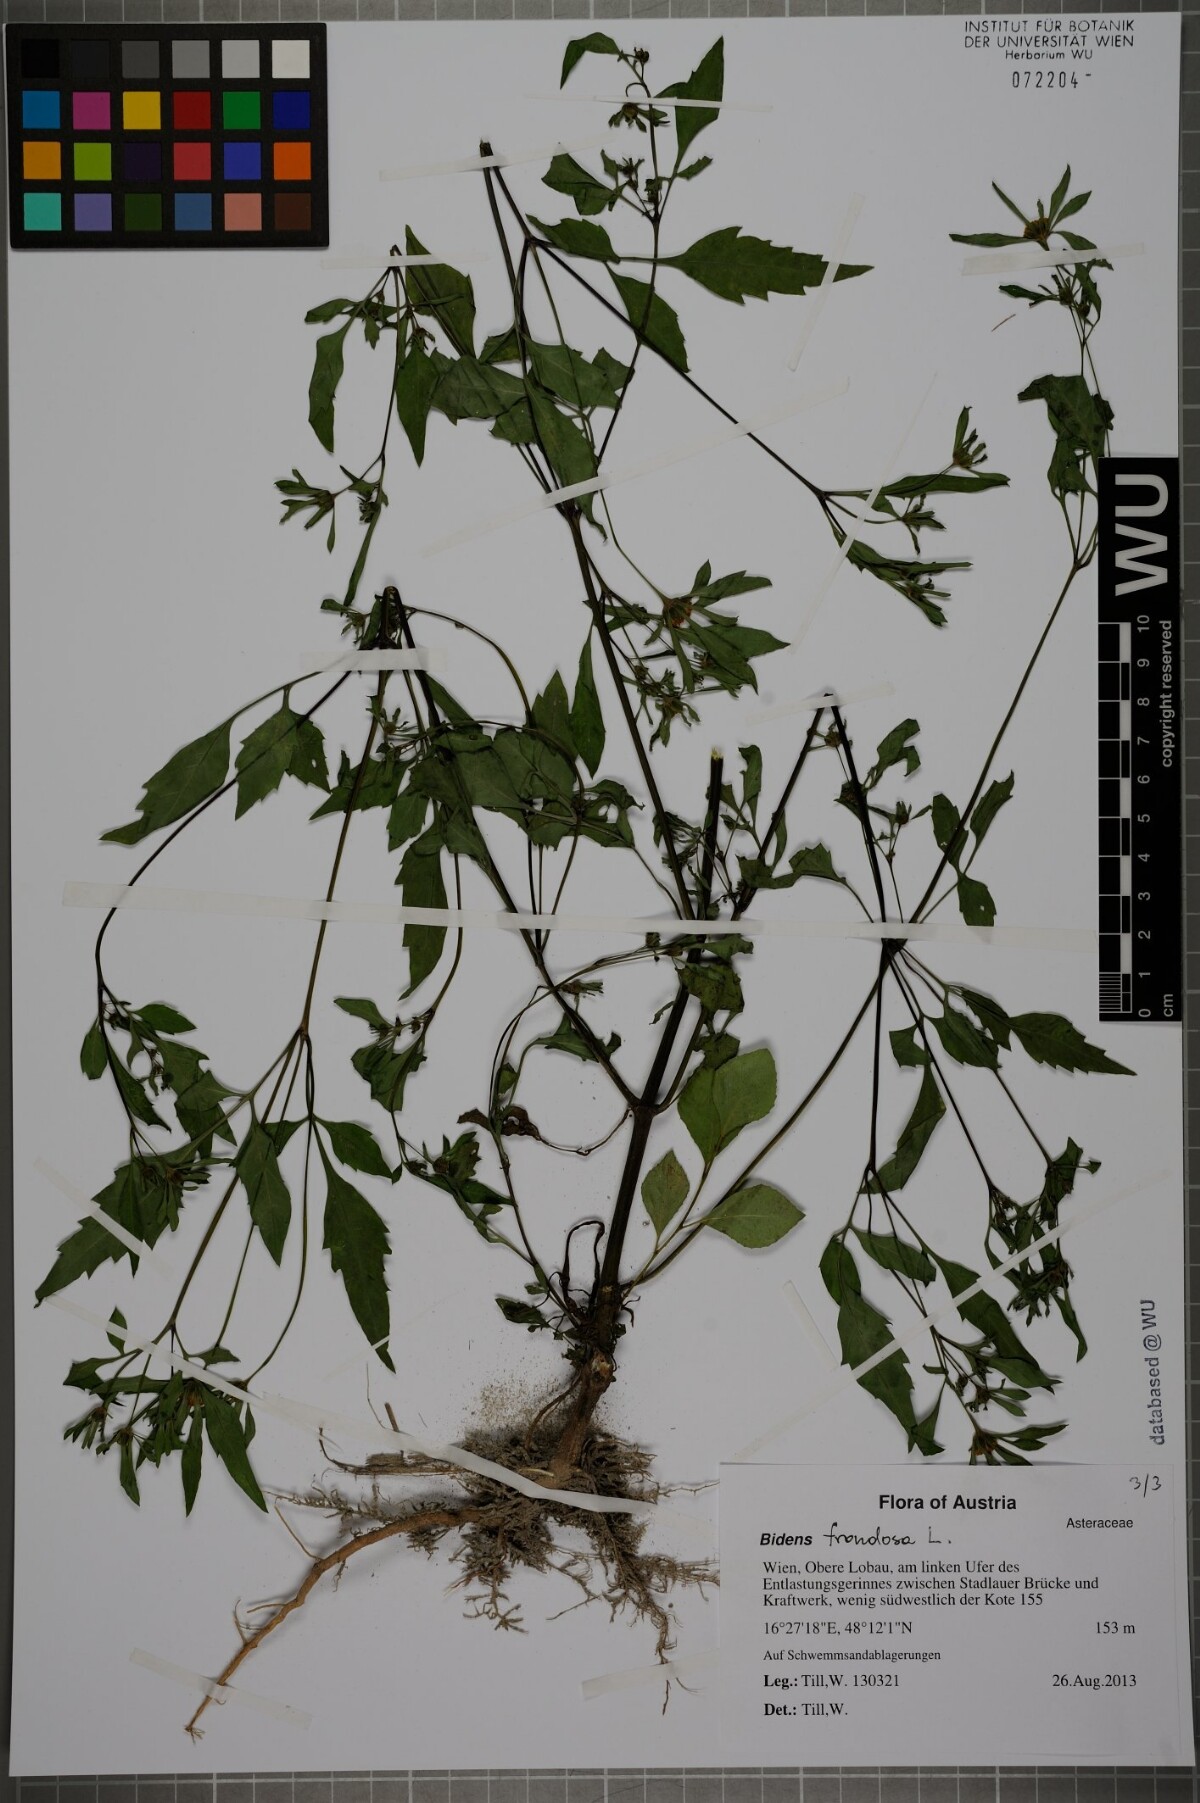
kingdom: Plantae
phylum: Tracheophyta
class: Magnoliopsida
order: Asterales
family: Asteraceae
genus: Bidens
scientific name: Bidens frondosa
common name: Beggarticks
